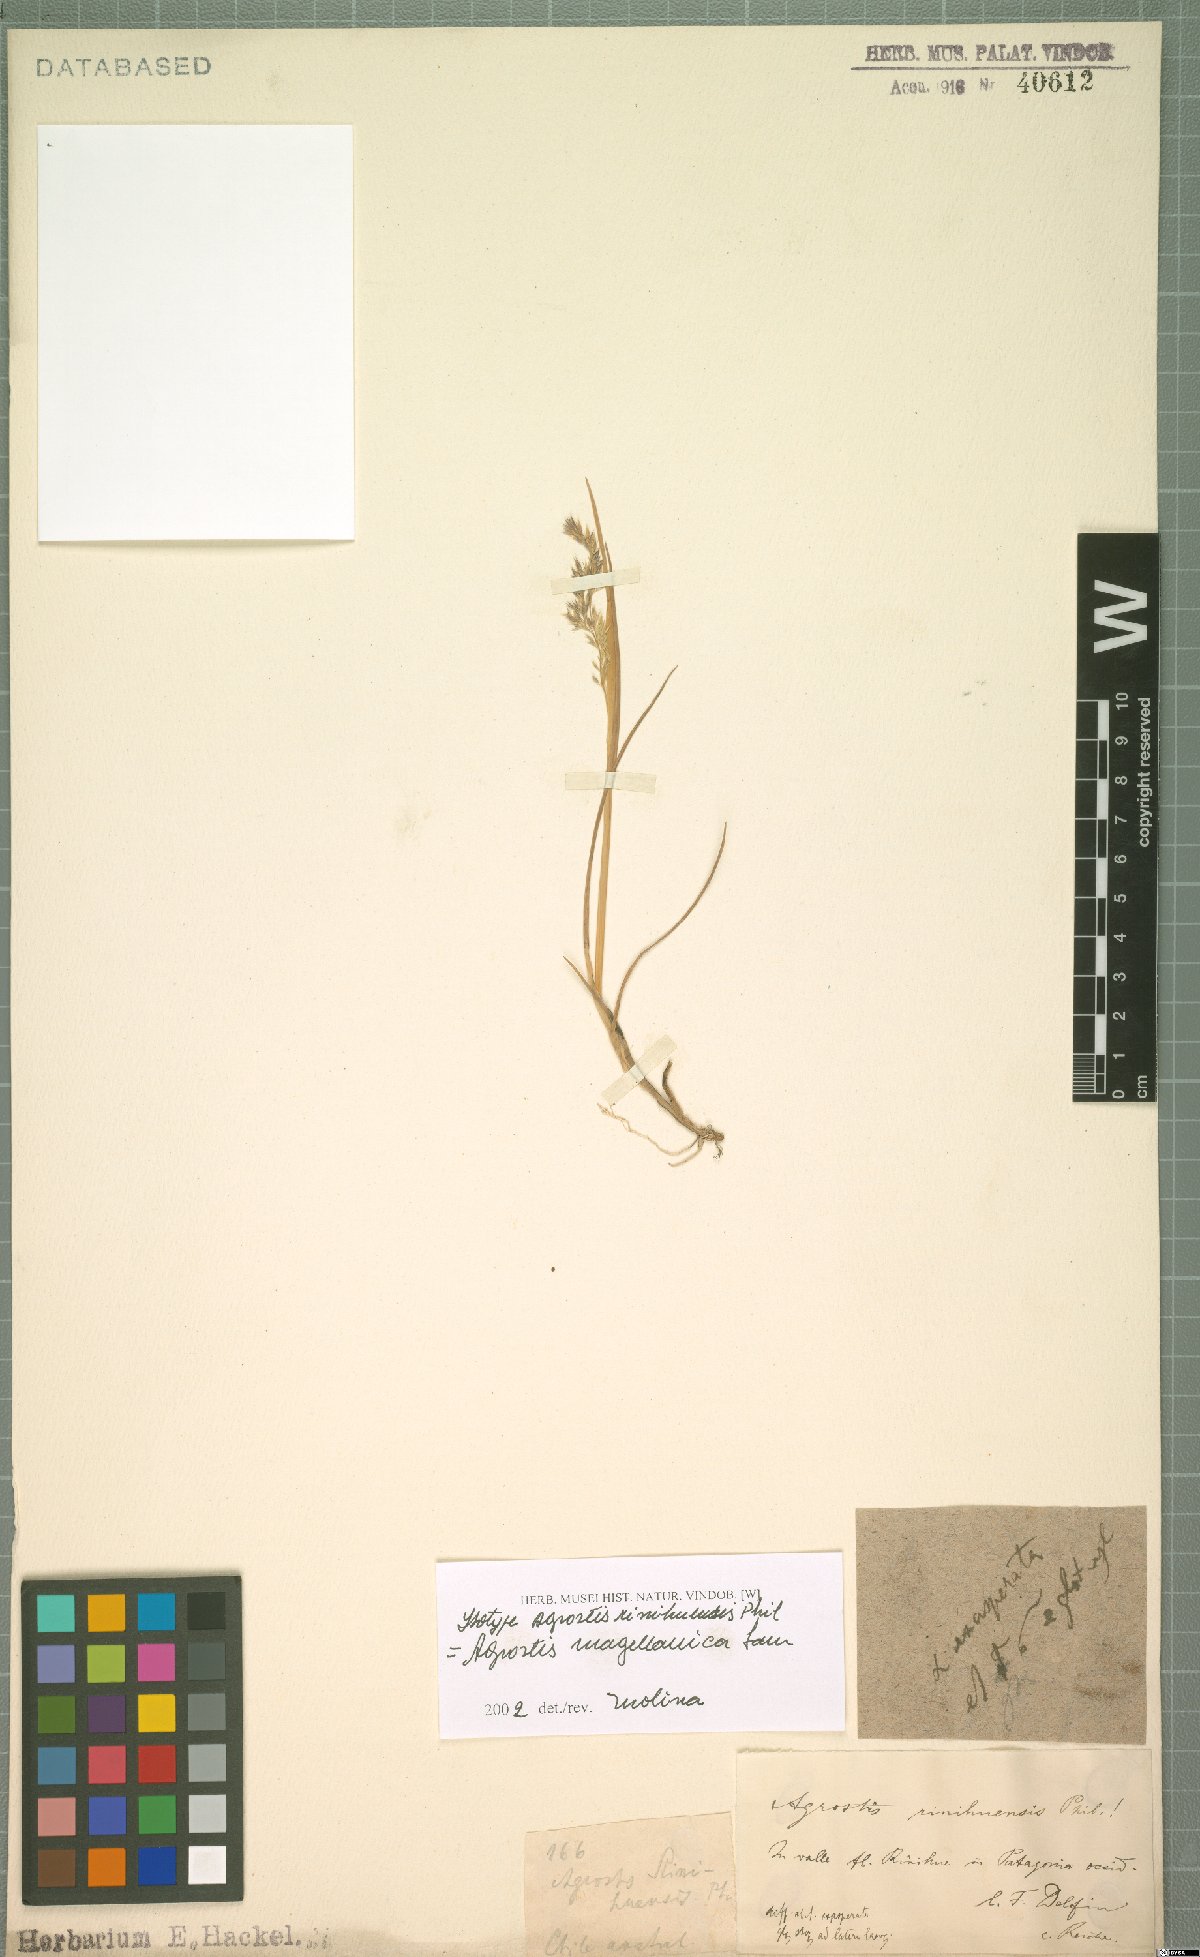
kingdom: Plantae
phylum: Tracheophyta
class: Liliopsida
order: Poales
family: Poaceae
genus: Polypogon
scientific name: Polypogon magellanicus
